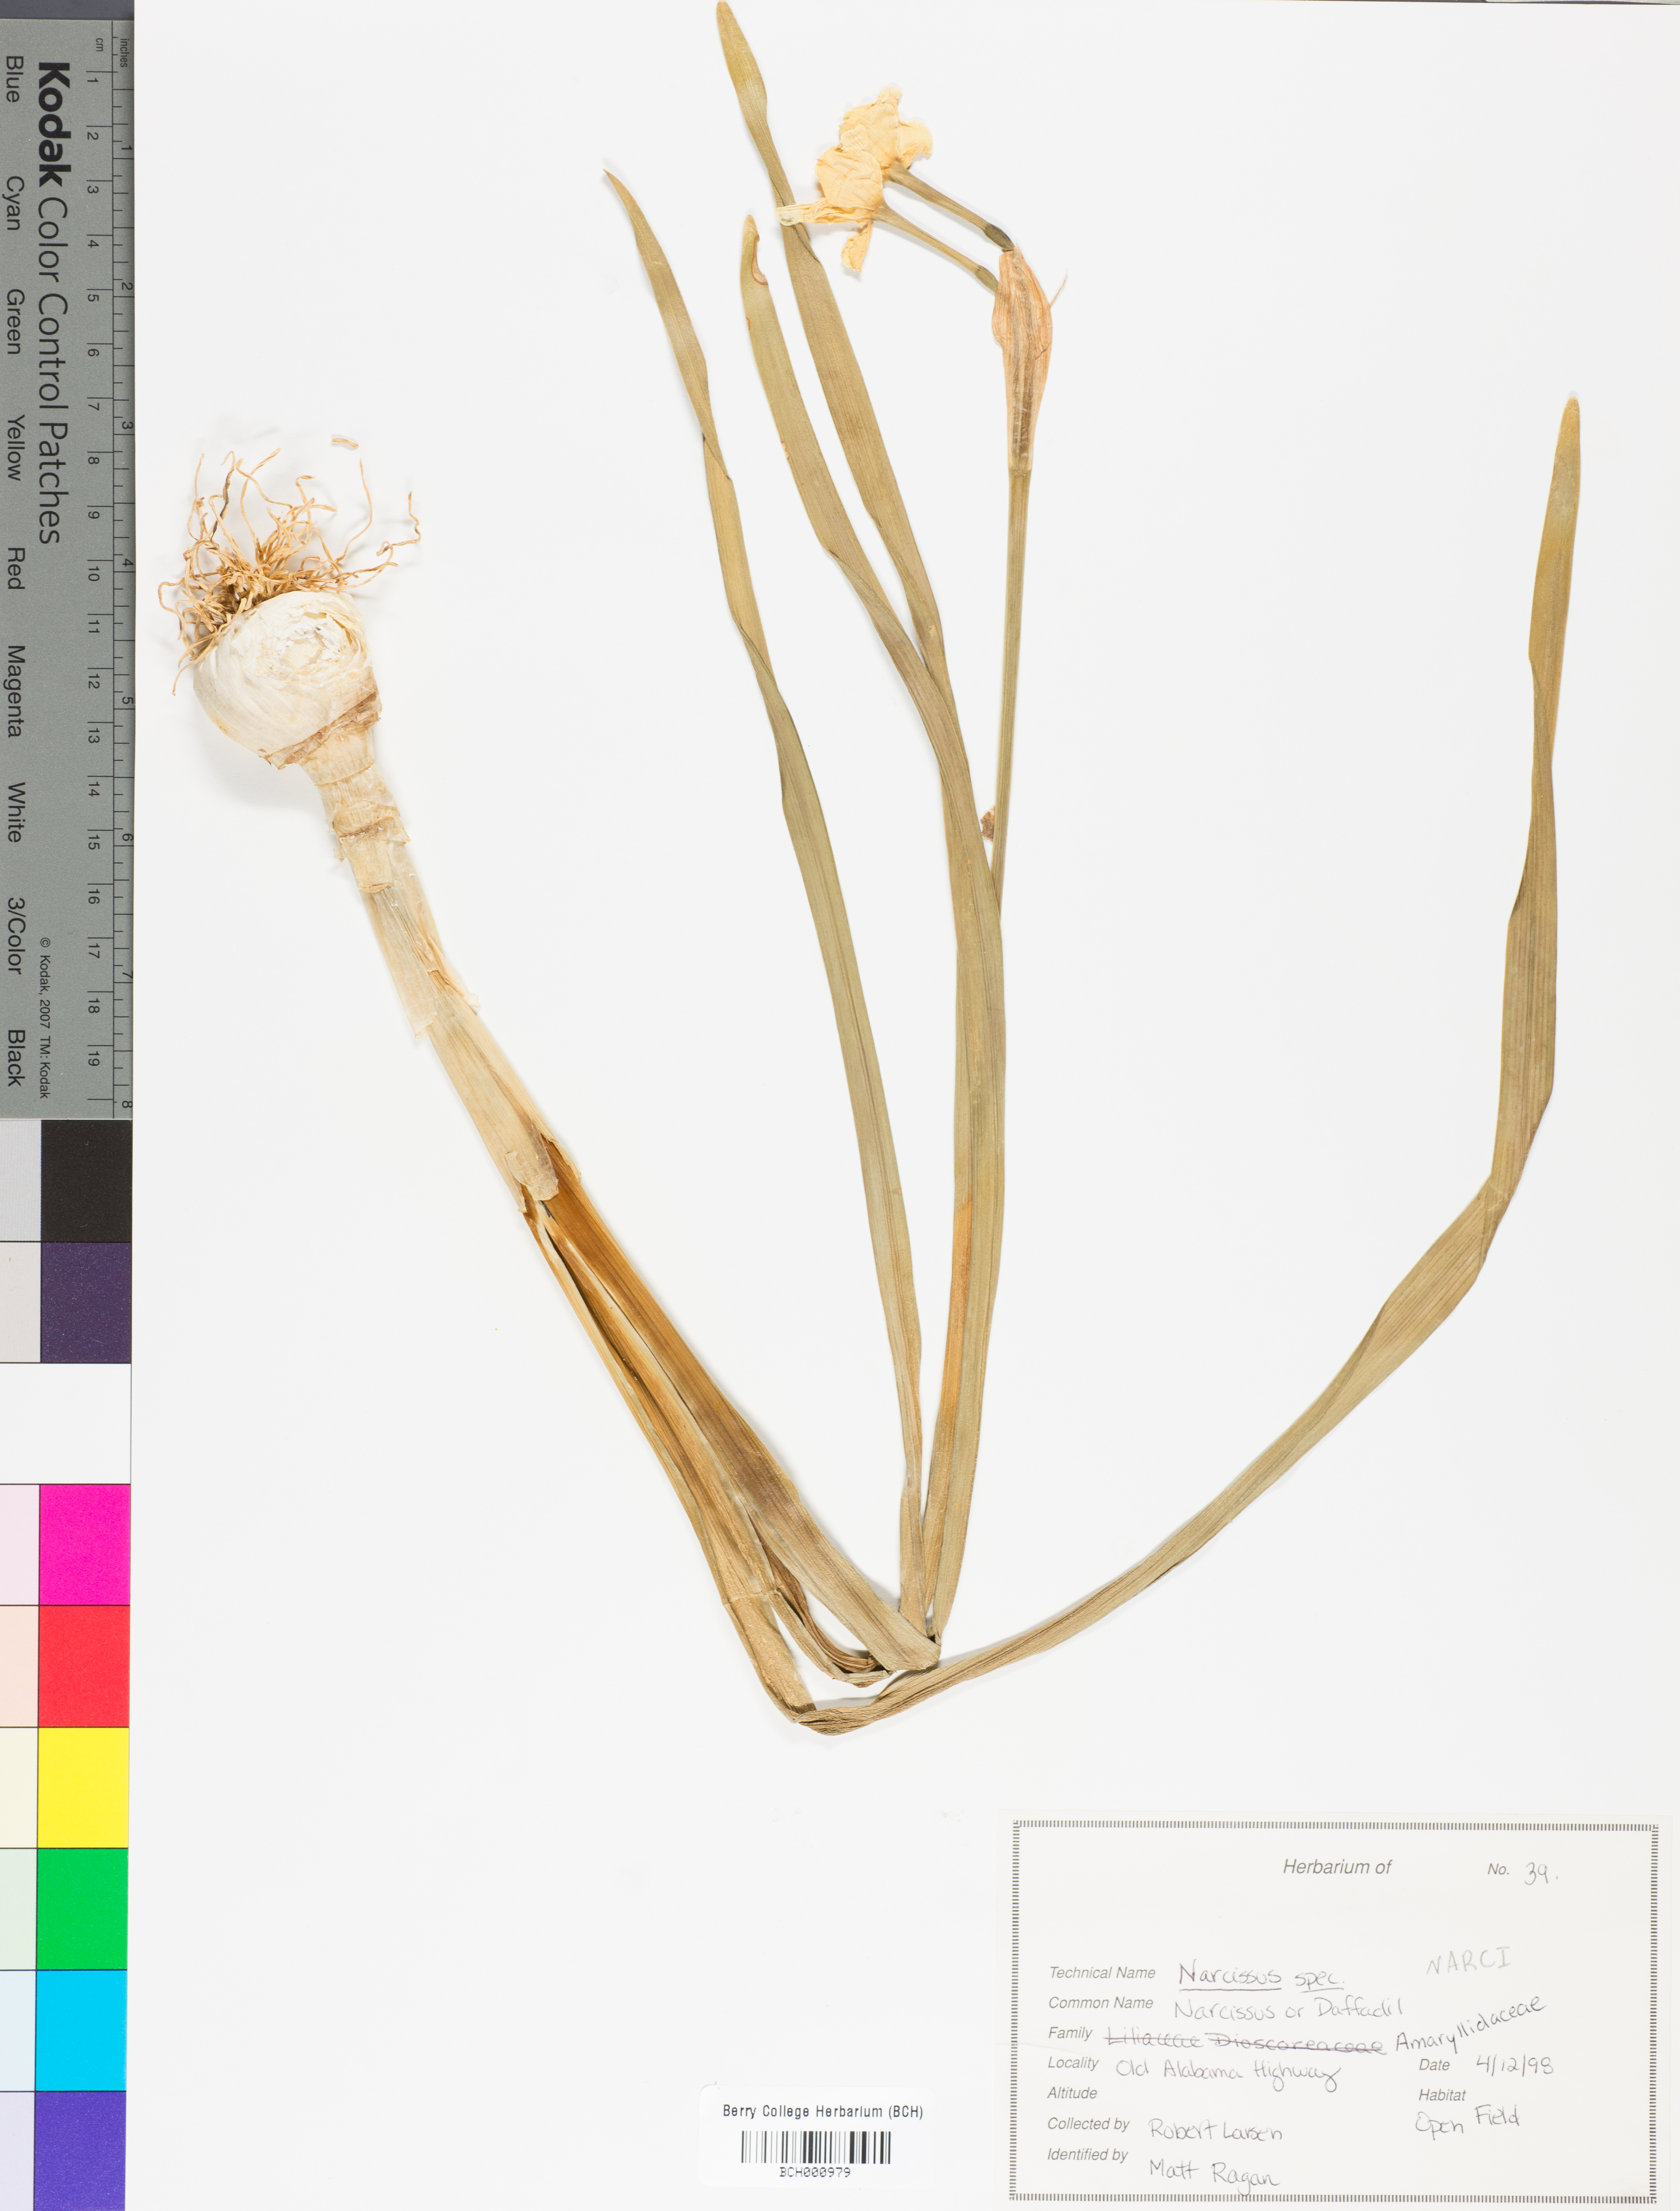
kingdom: Plantae
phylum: Tracheophyta
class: Liliopsida
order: Asparagales
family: Amaryllidaceae
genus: Narcissus
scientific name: Narcissus
